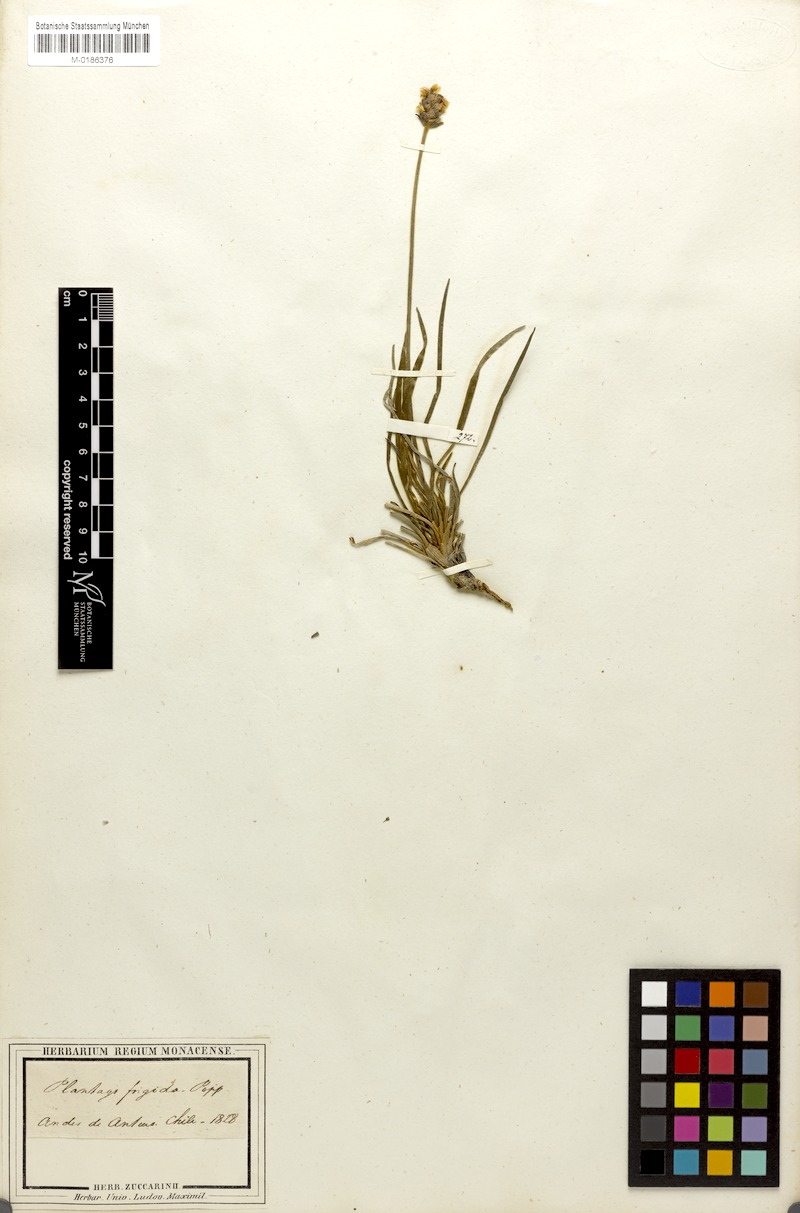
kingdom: Plantae
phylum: Tracheophyta
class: Magnoliopsida
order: Lamiales
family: Plantaginaceae
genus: Plantago
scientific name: Plantago grandiflora
